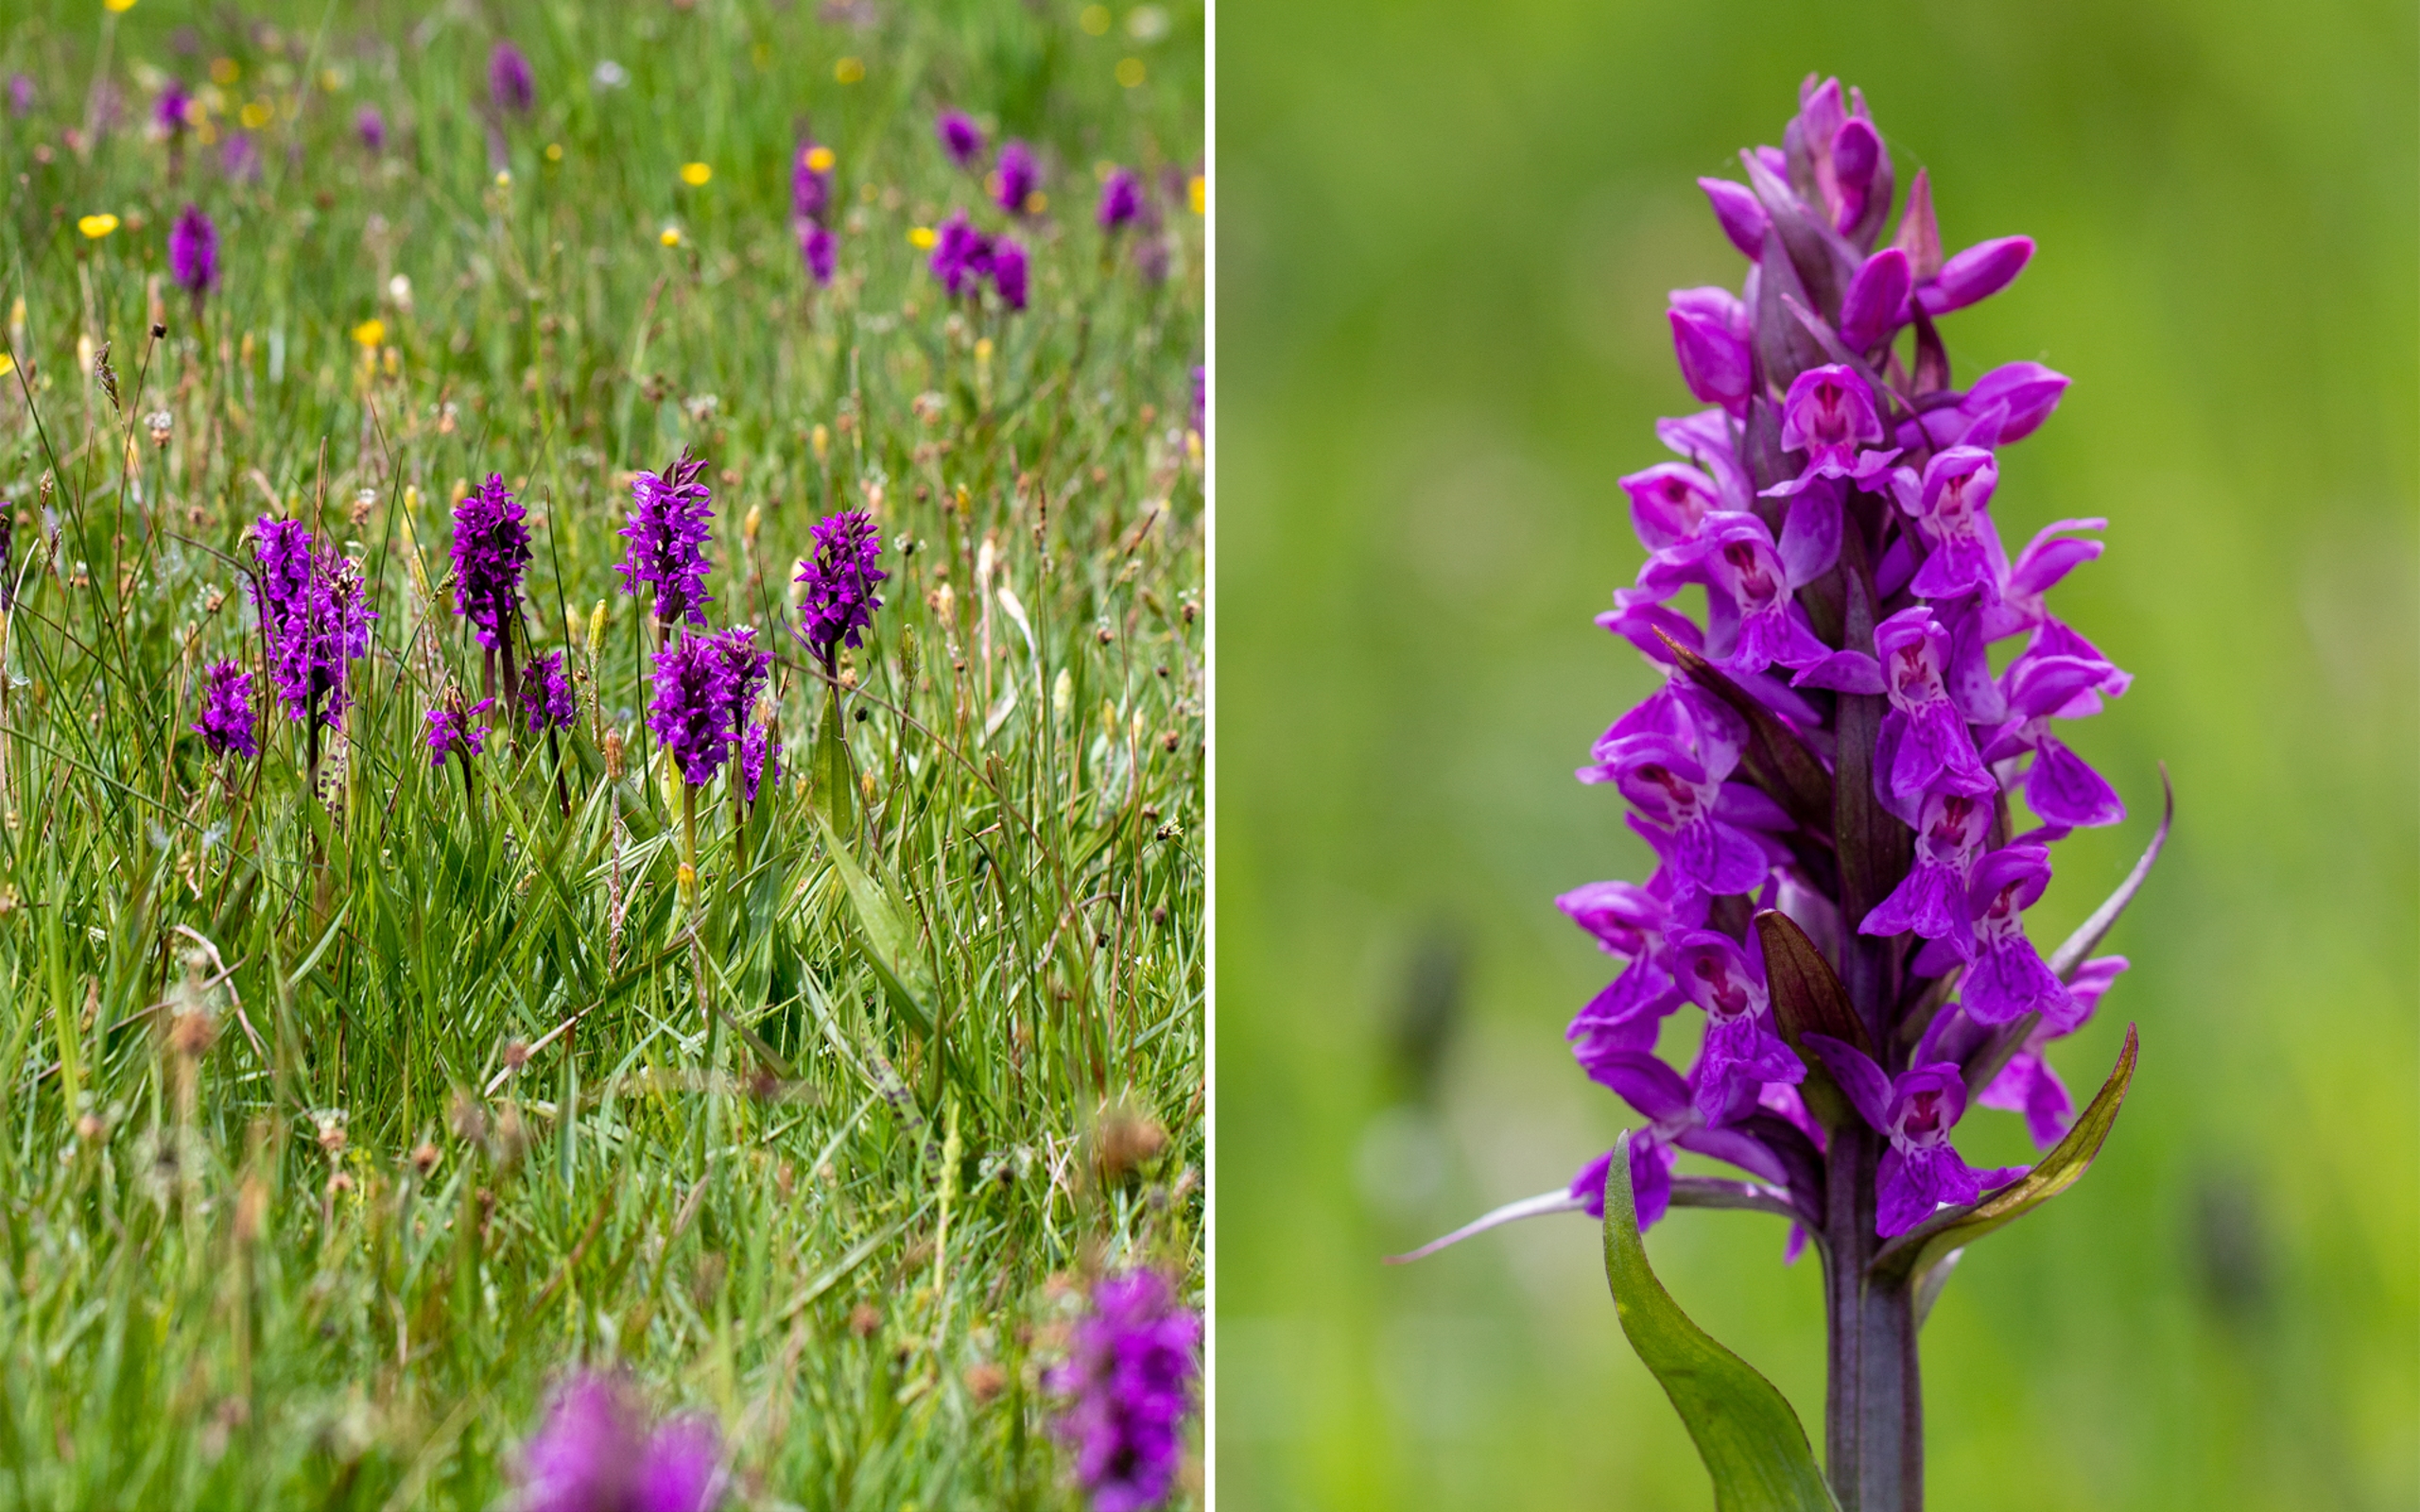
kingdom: Plantae
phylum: Tracheophyta
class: Liliopsida
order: Asparagales
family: Orchidaceae
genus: Dactylorhiza
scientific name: Dactylorhiza majalis
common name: Maj-gøgeurt
